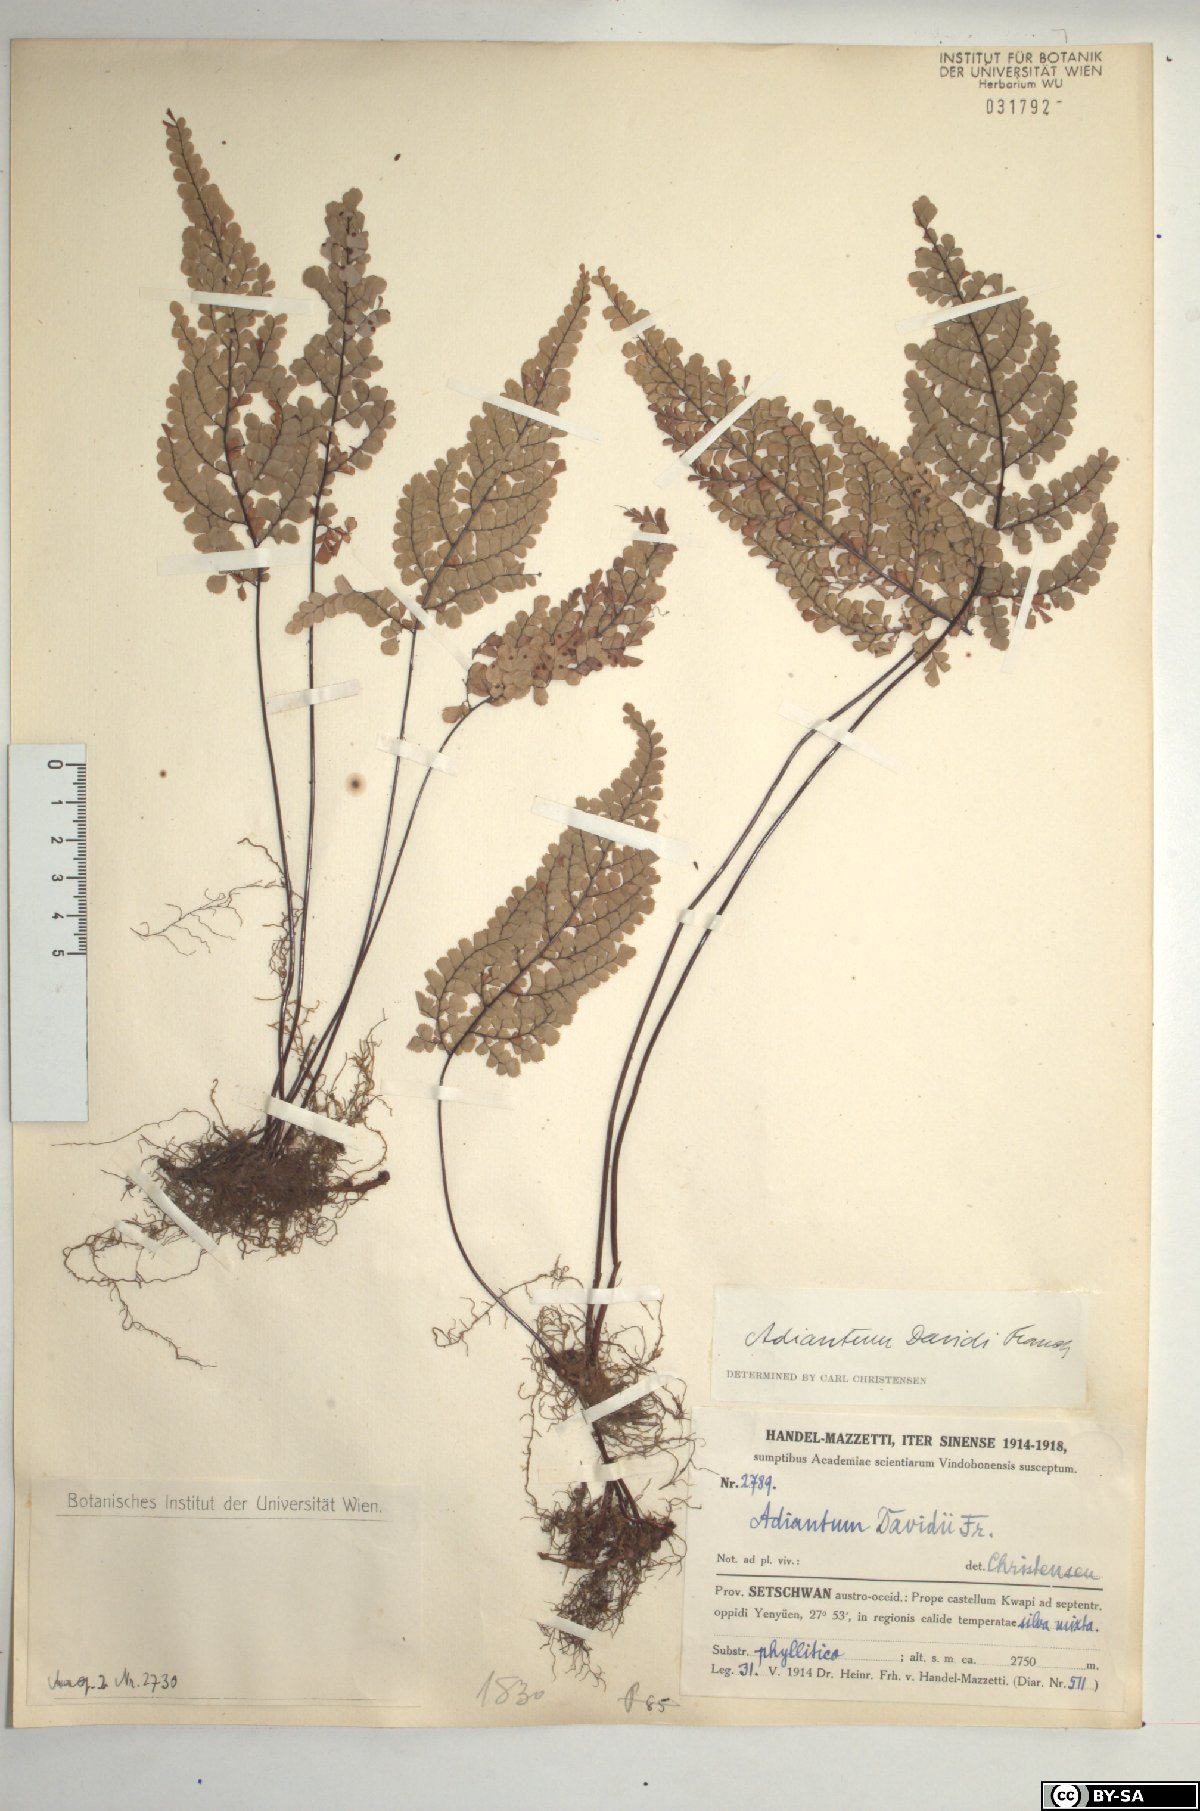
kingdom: Plantae
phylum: Tracheophyta
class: Polypodiopsida
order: Polypodiales
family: Pteridaceae
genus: Adiantum
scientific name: Adiantum davidii
